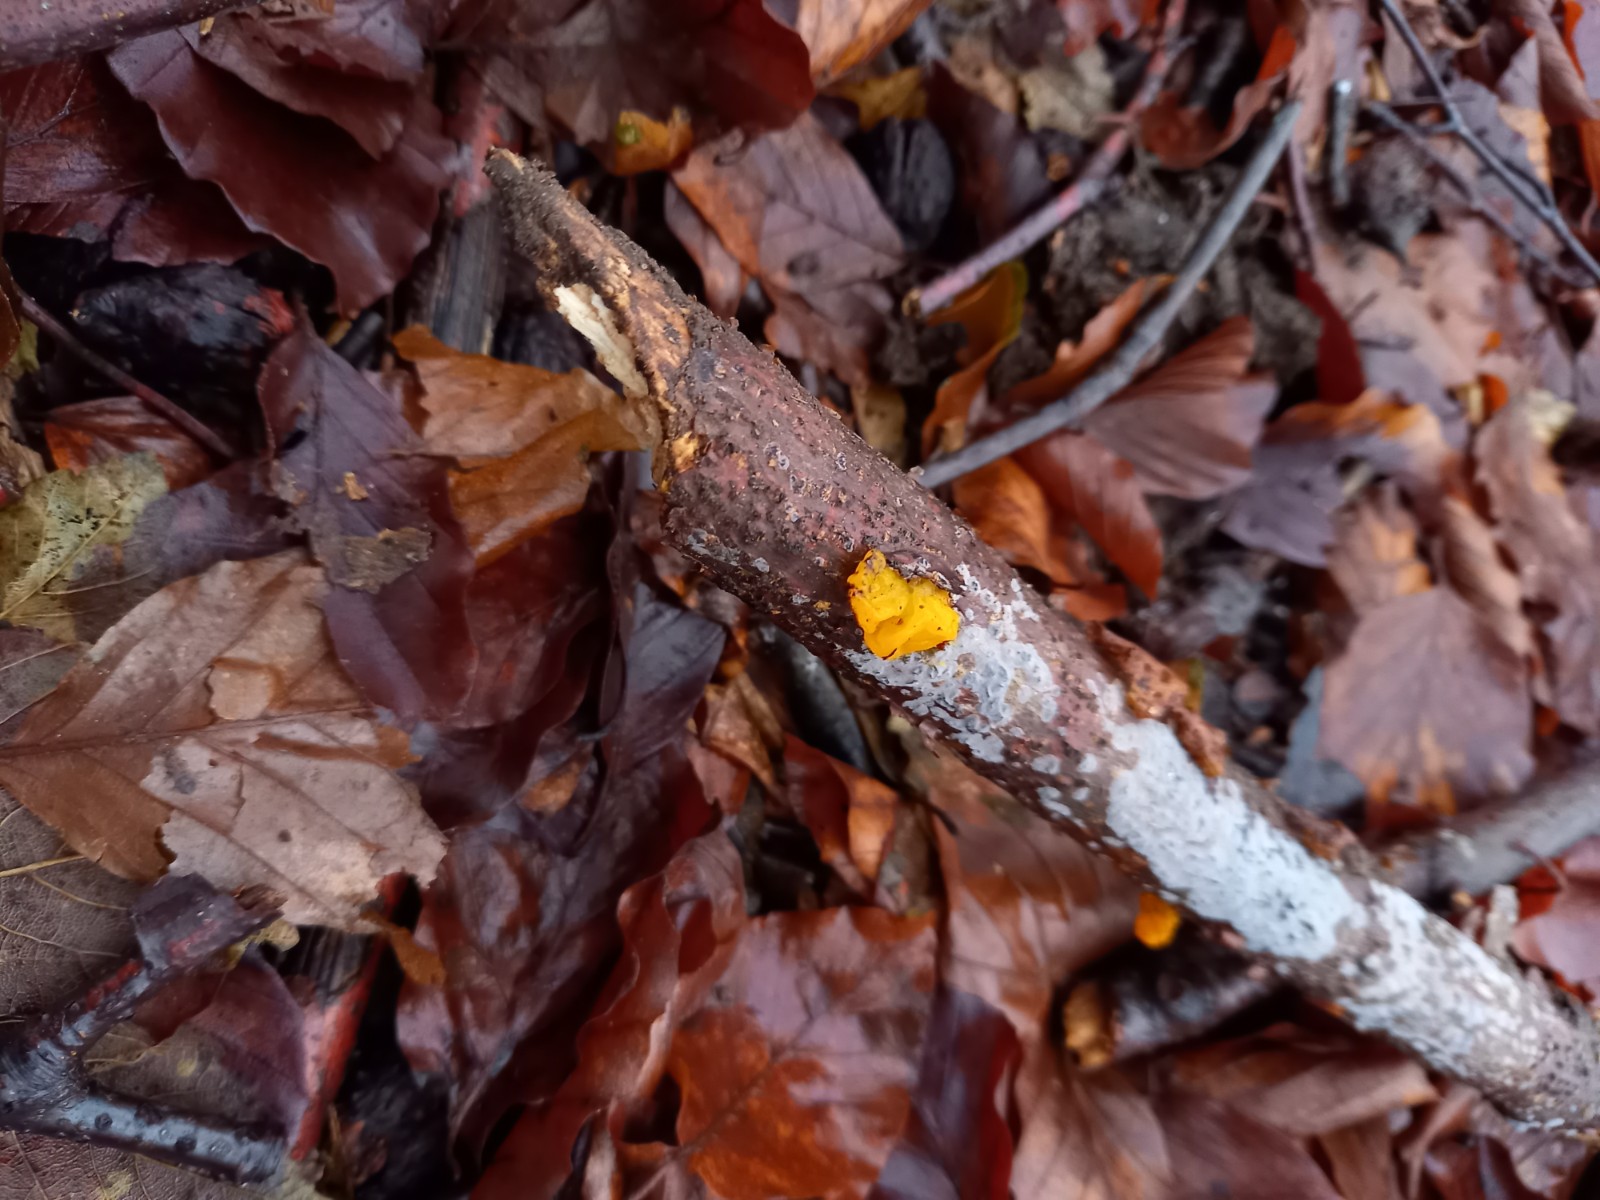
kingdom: Fungi
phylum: Basidiomycota
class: Tremellomycetes
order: Tremellales
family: Tremellaceae
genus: Tremella
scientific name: Tremella mesenterica
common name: gul bævresvamp
